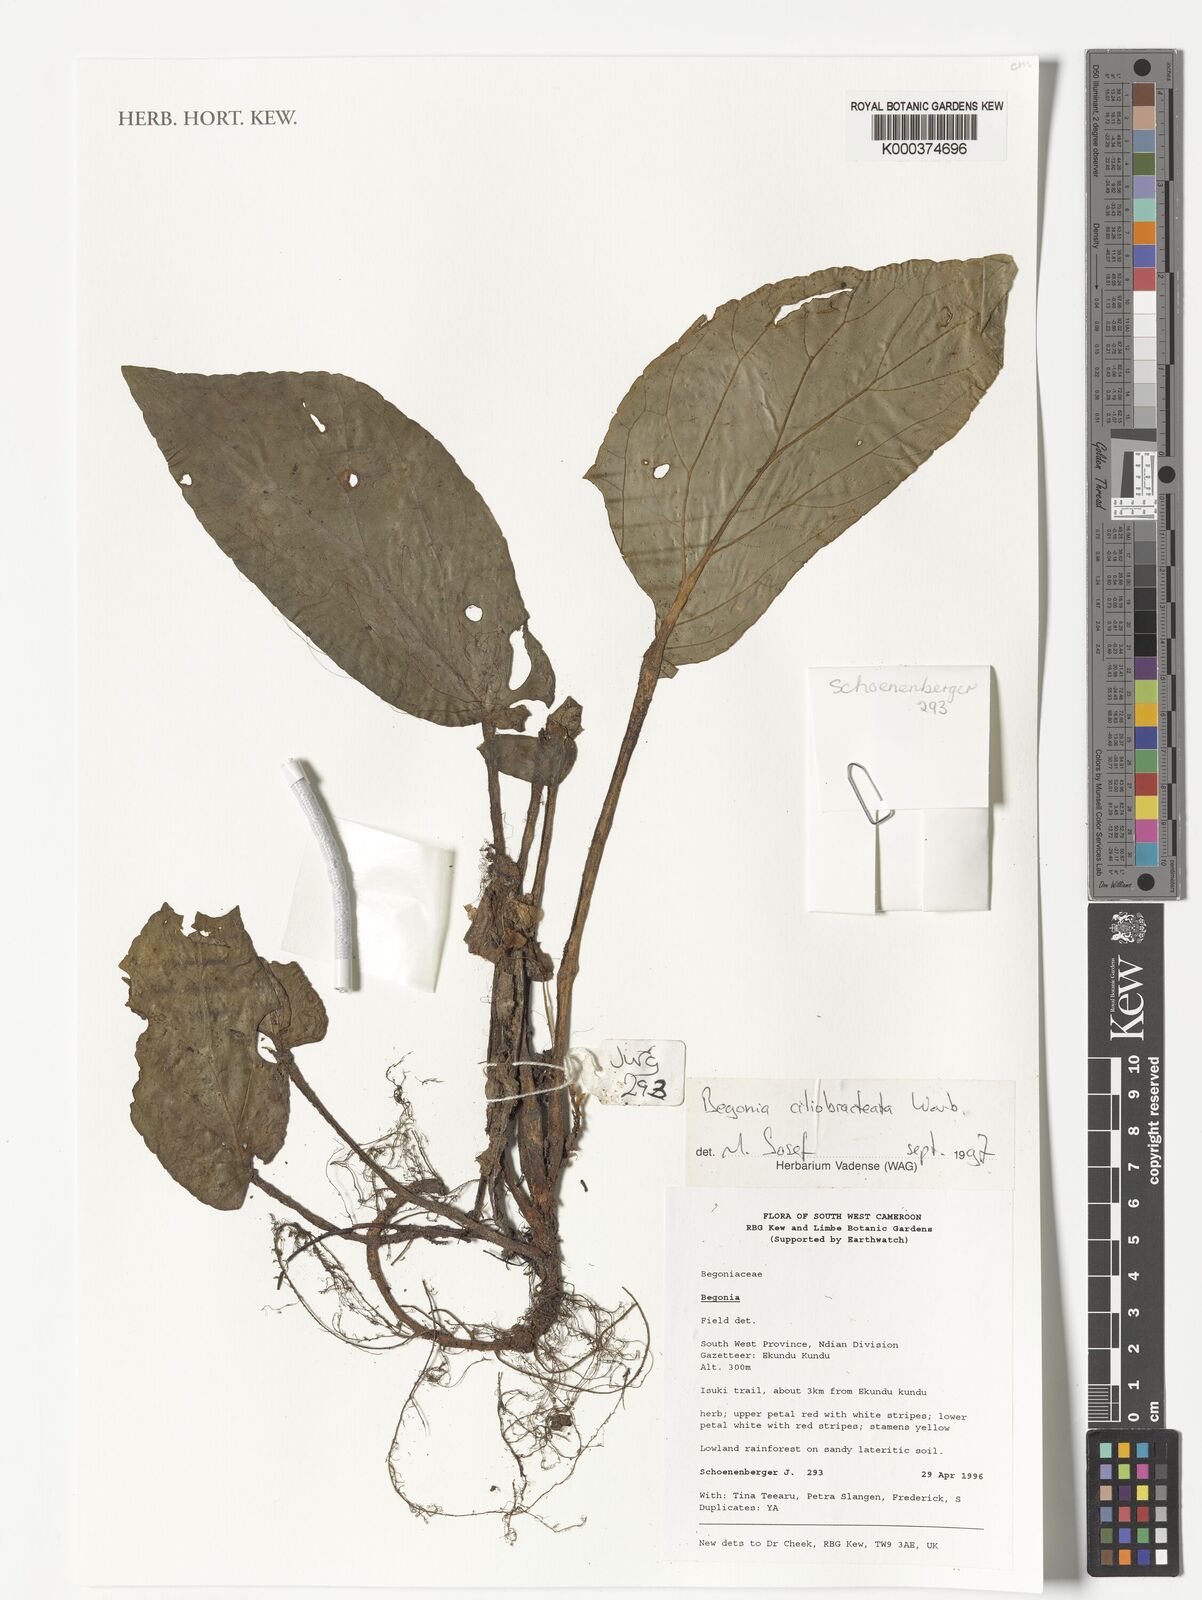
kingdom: Plantae
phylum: Tracheophyta
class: Magnoliopsida
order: Cucurbitales
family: Begoniaceae
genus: Begonia
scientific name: Begonia ciliobracteata
